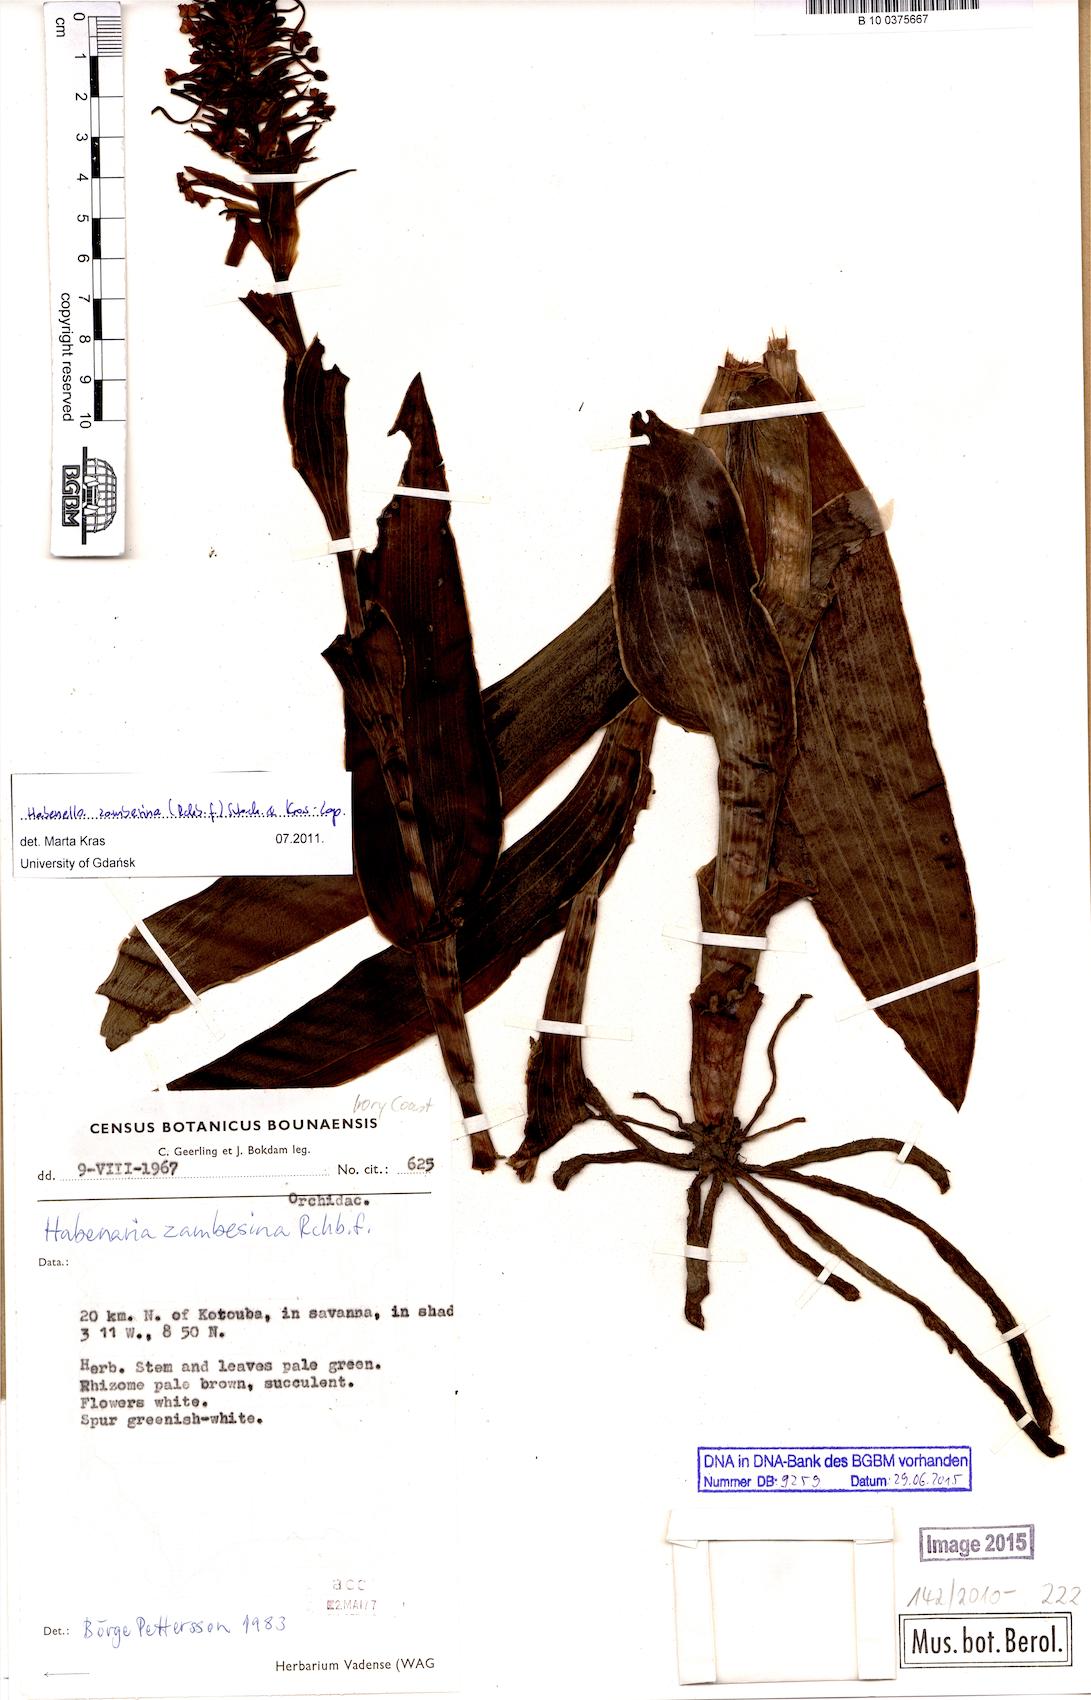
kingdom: Plantae
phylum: Tracheophyta
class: Liliopsida
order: Asparagales
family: Orchidaceae
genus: Habenaria
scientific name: Habenaria zambesina
